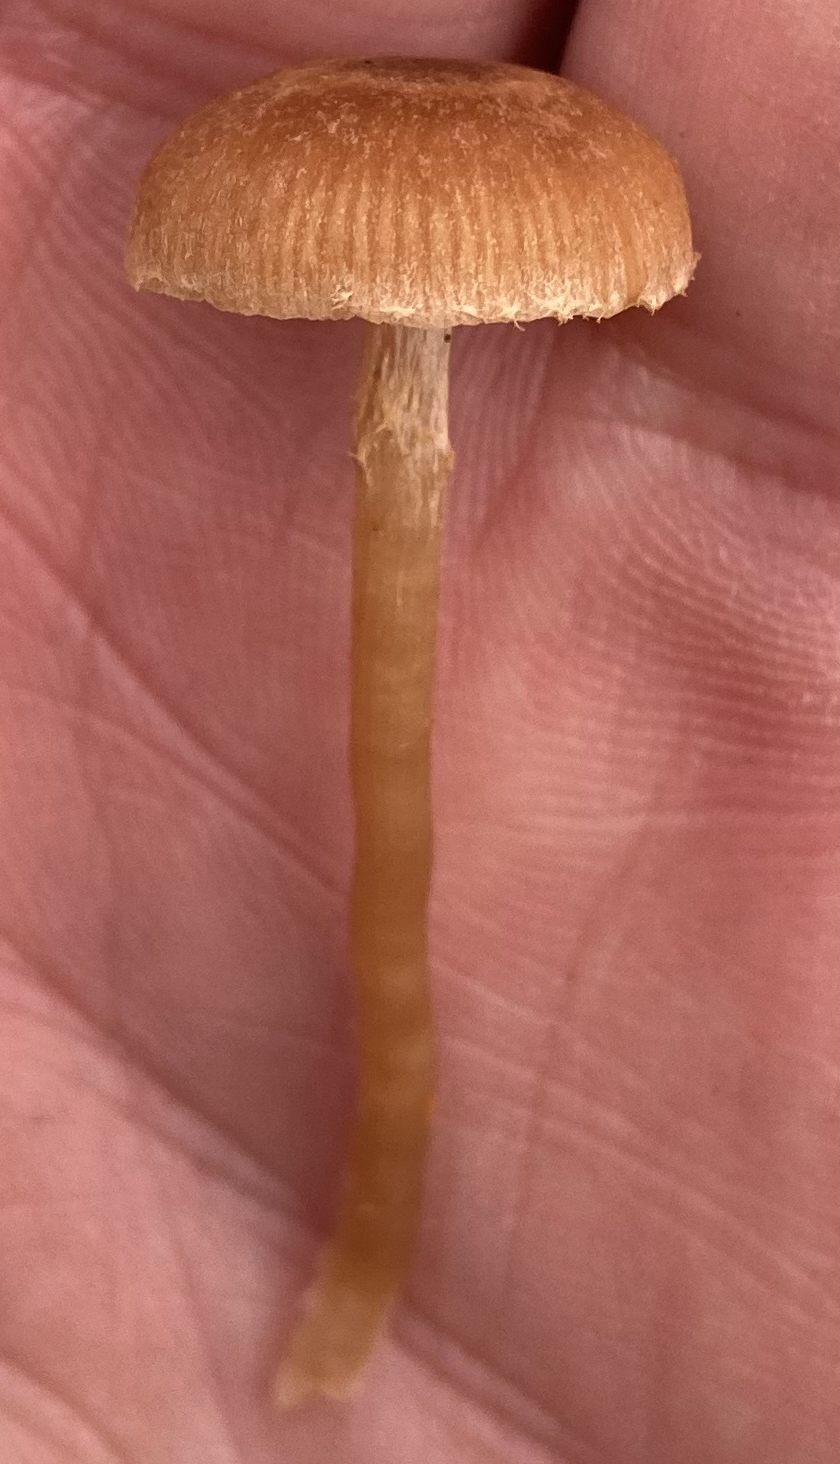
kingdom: Fungi
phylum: Basidiomycota
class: Agaricomycetes
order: Agaricales
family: Tubariaceae
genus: Tubaria
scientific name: Tubaria furfuracea
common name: kliddet fnughat
